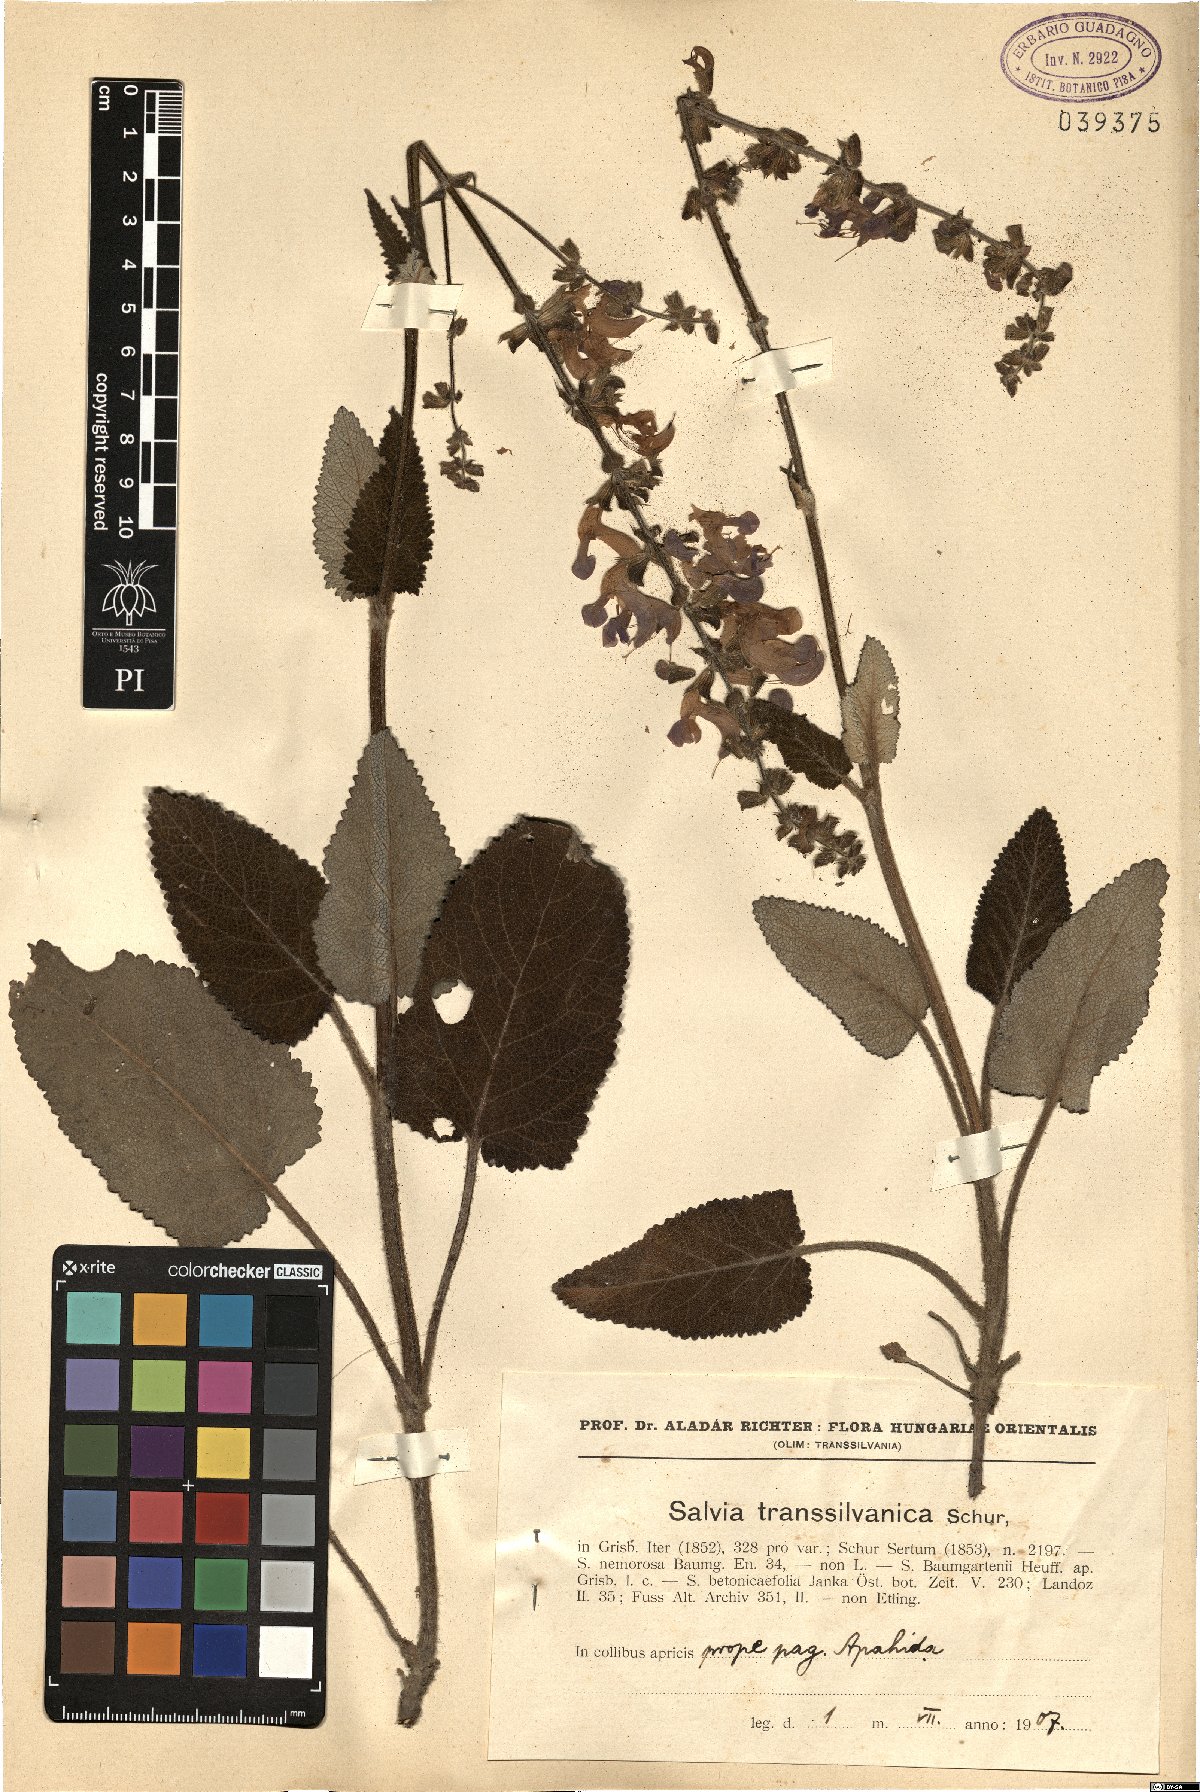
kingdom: Plantae
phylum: Tracheophyta
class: Magnoliopsida
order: Lamiales
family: Lamiaceae
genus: Salvia
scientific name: Salvia transsylvanica
